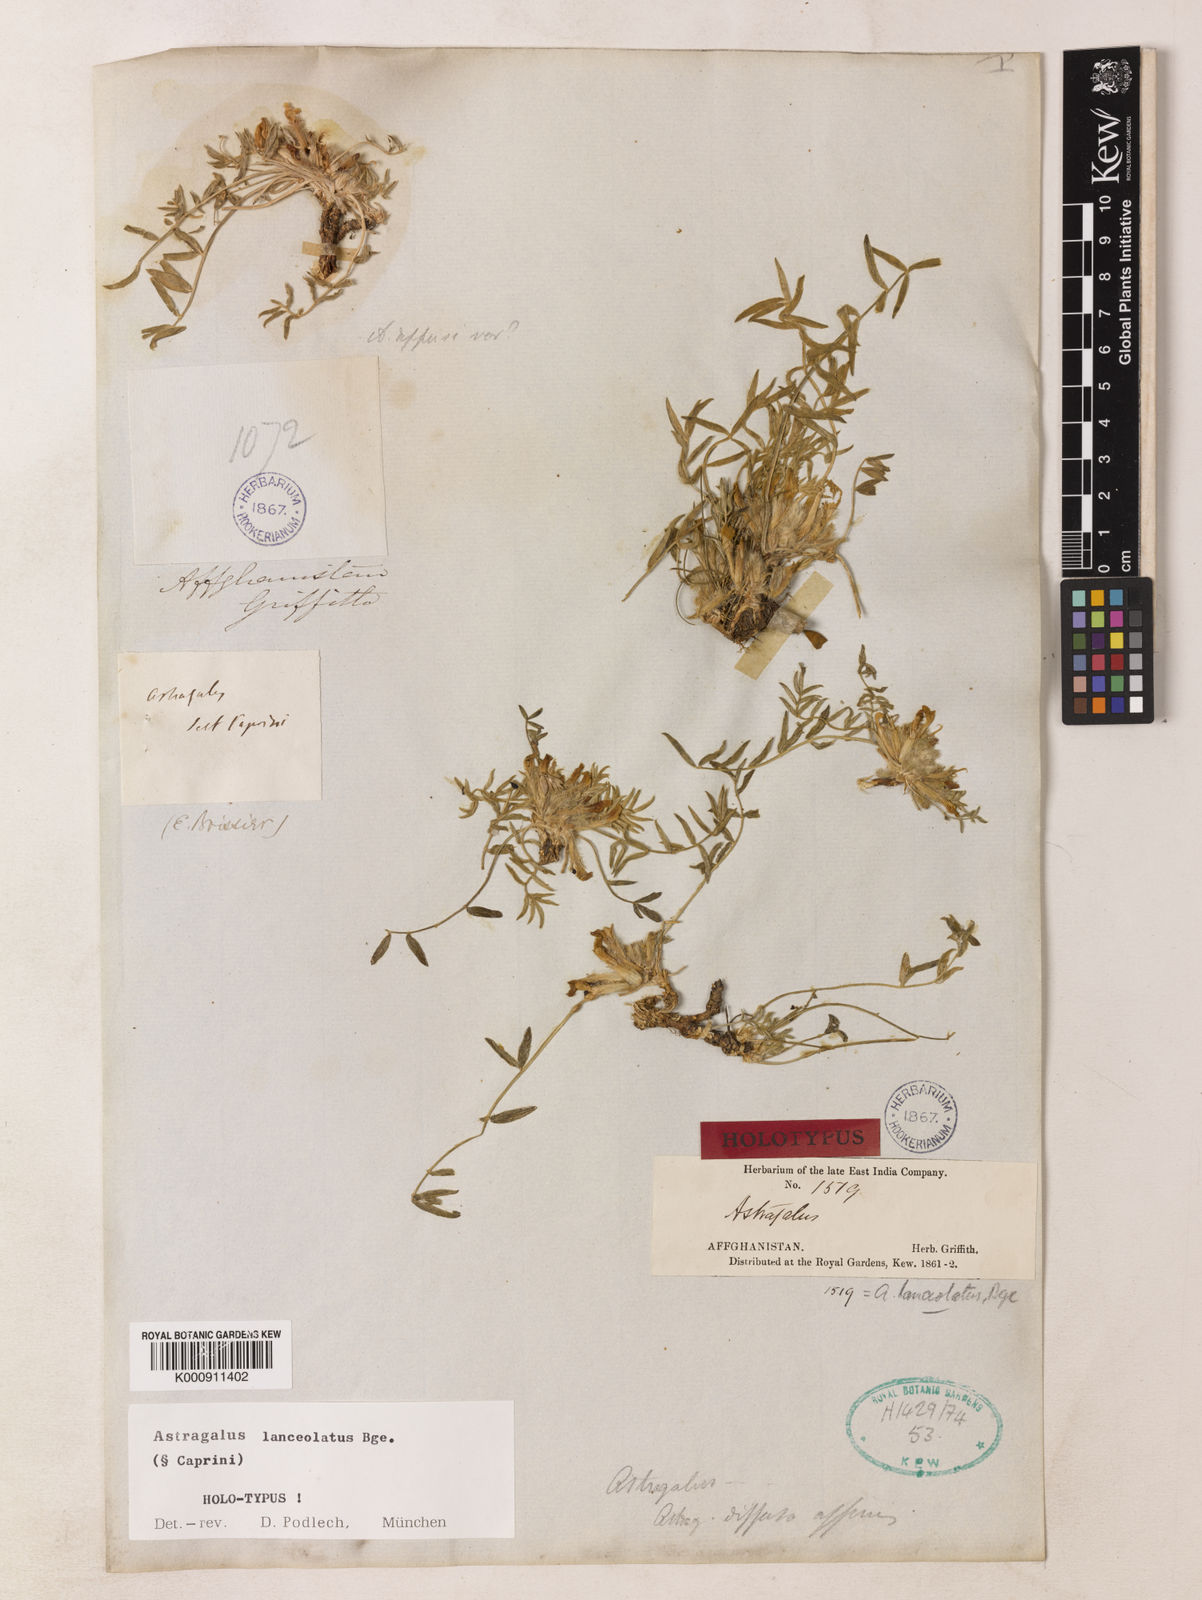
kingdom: Plantae
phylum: Tracheophyta
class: Magnoliopsida
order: Fabales
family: Fabaceae
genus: Astragalus
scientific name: Astragalus
